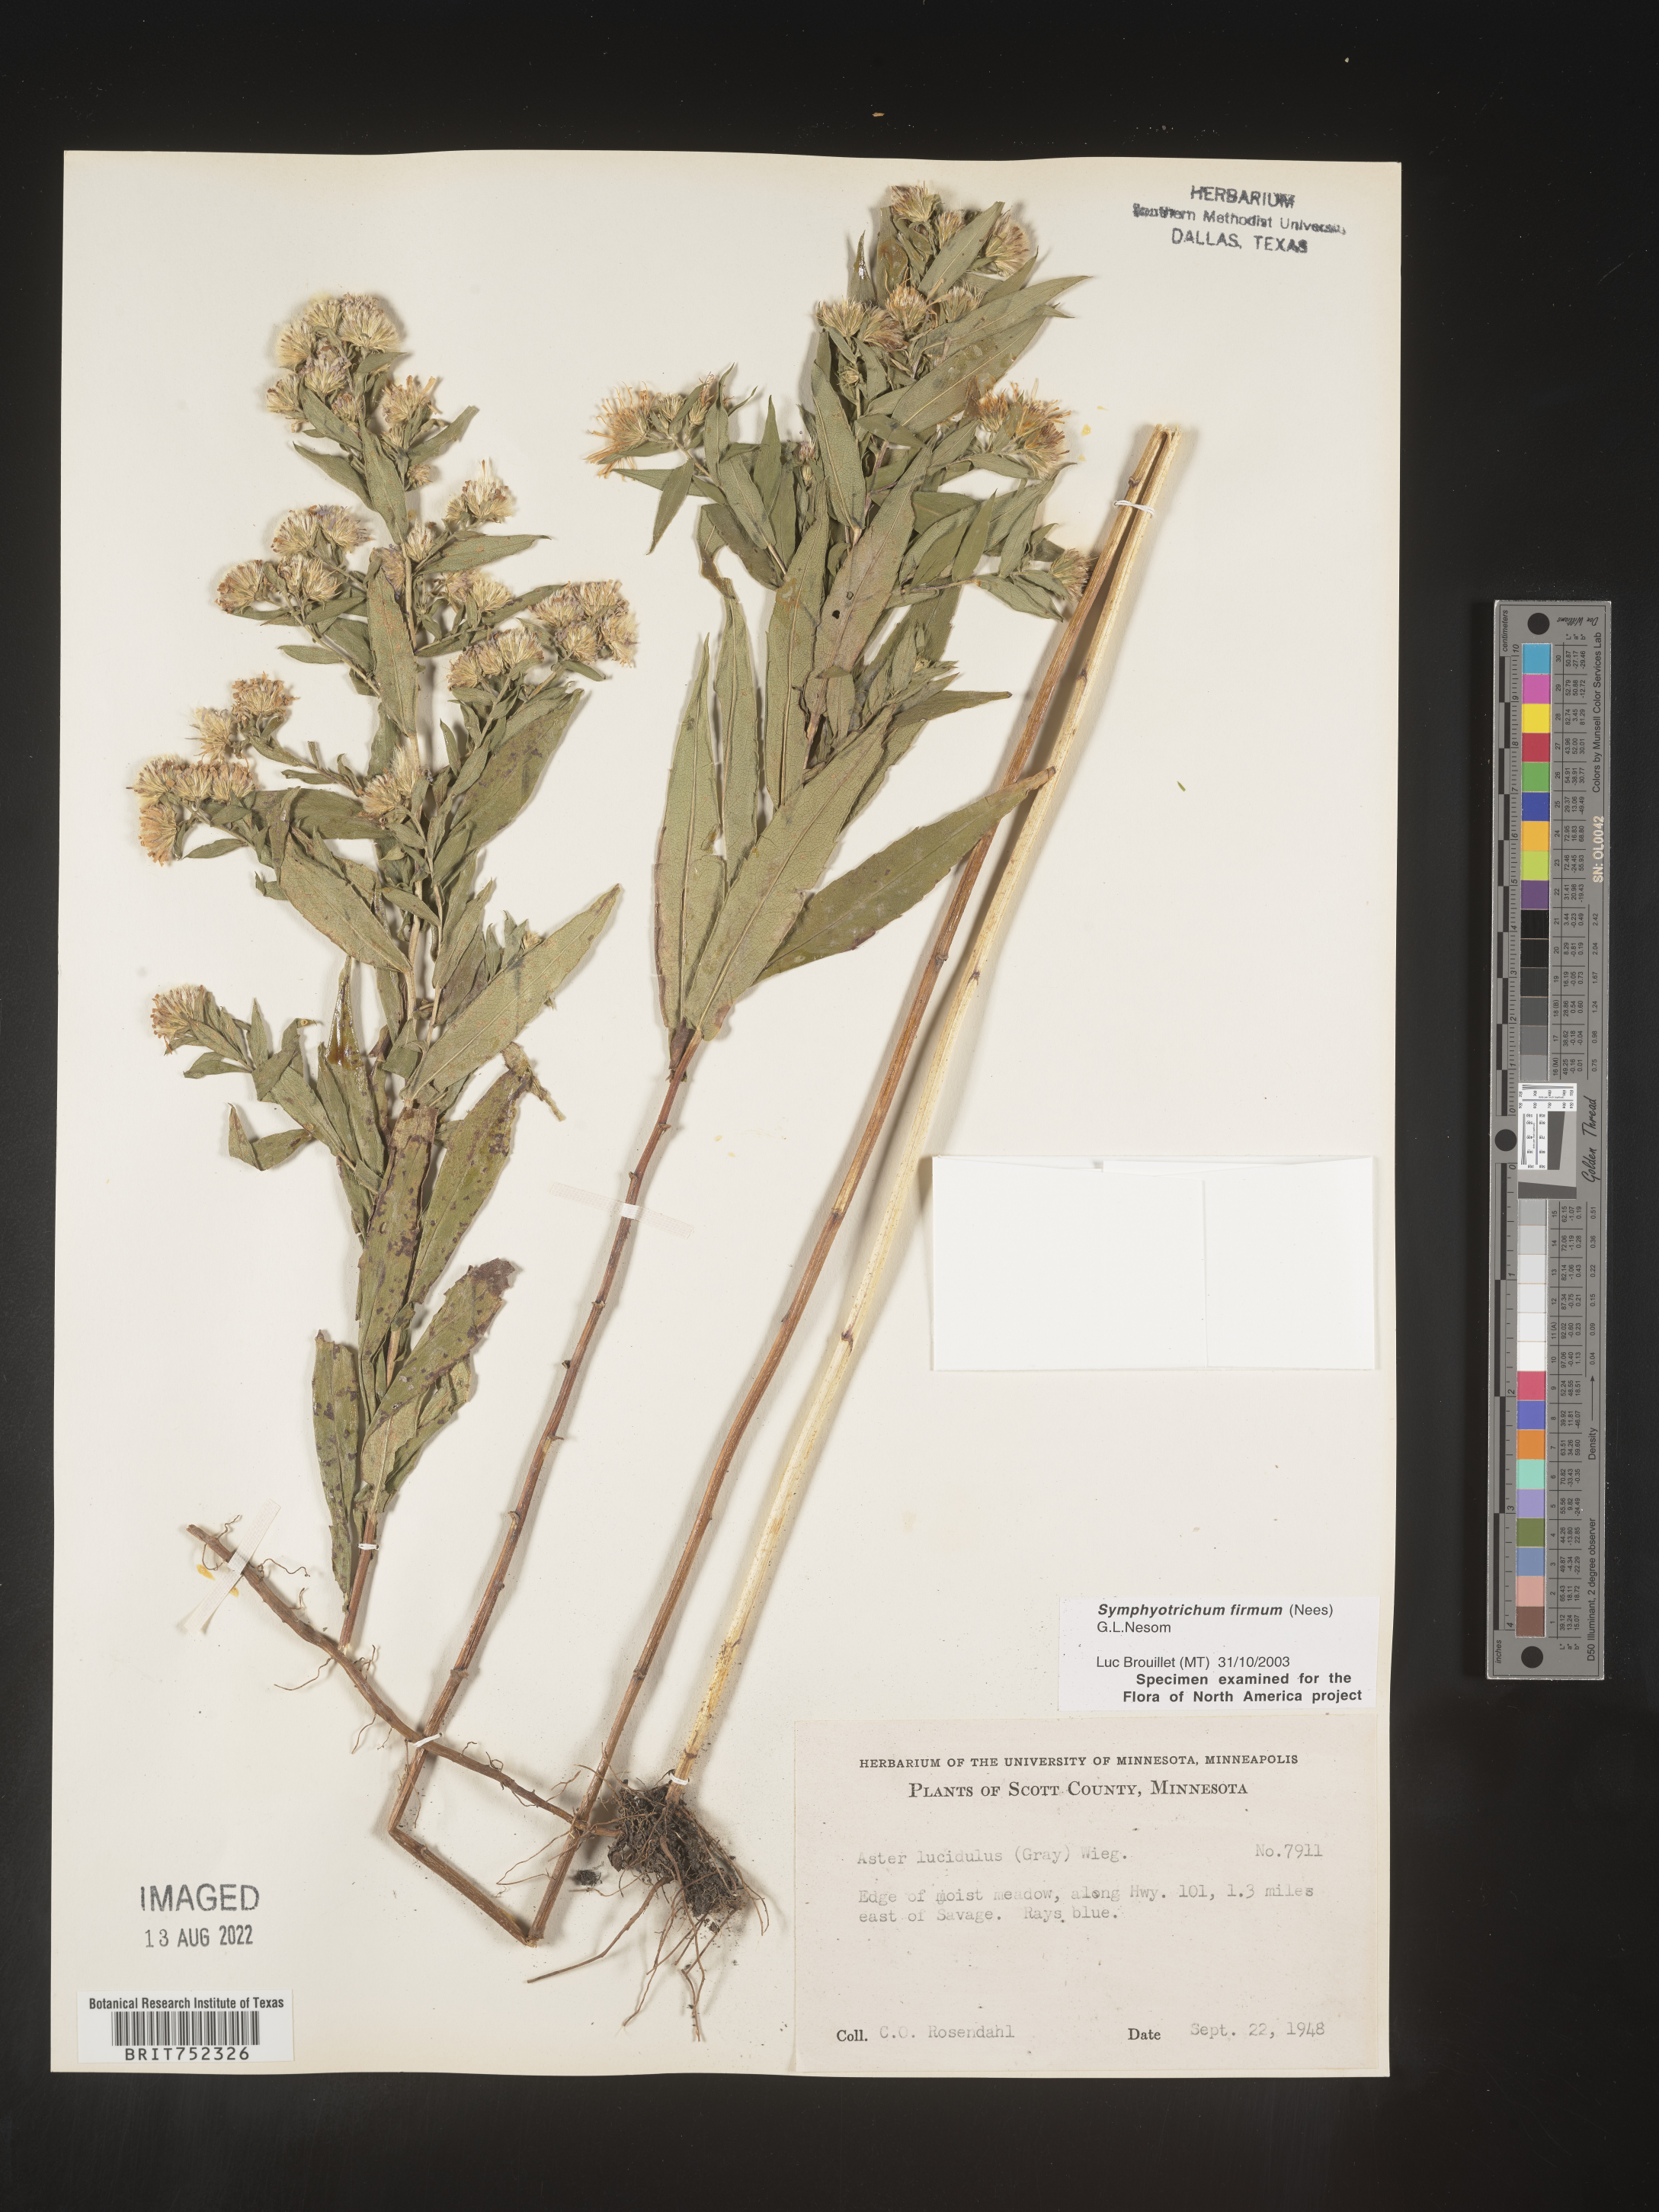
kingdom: Plantae
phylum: Tracheophyta
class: Magnoliopsida
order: Asterales
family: Asteraceae
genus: Symphyotrichum
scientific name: Symphyotrichum firmum
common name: Shining aster
